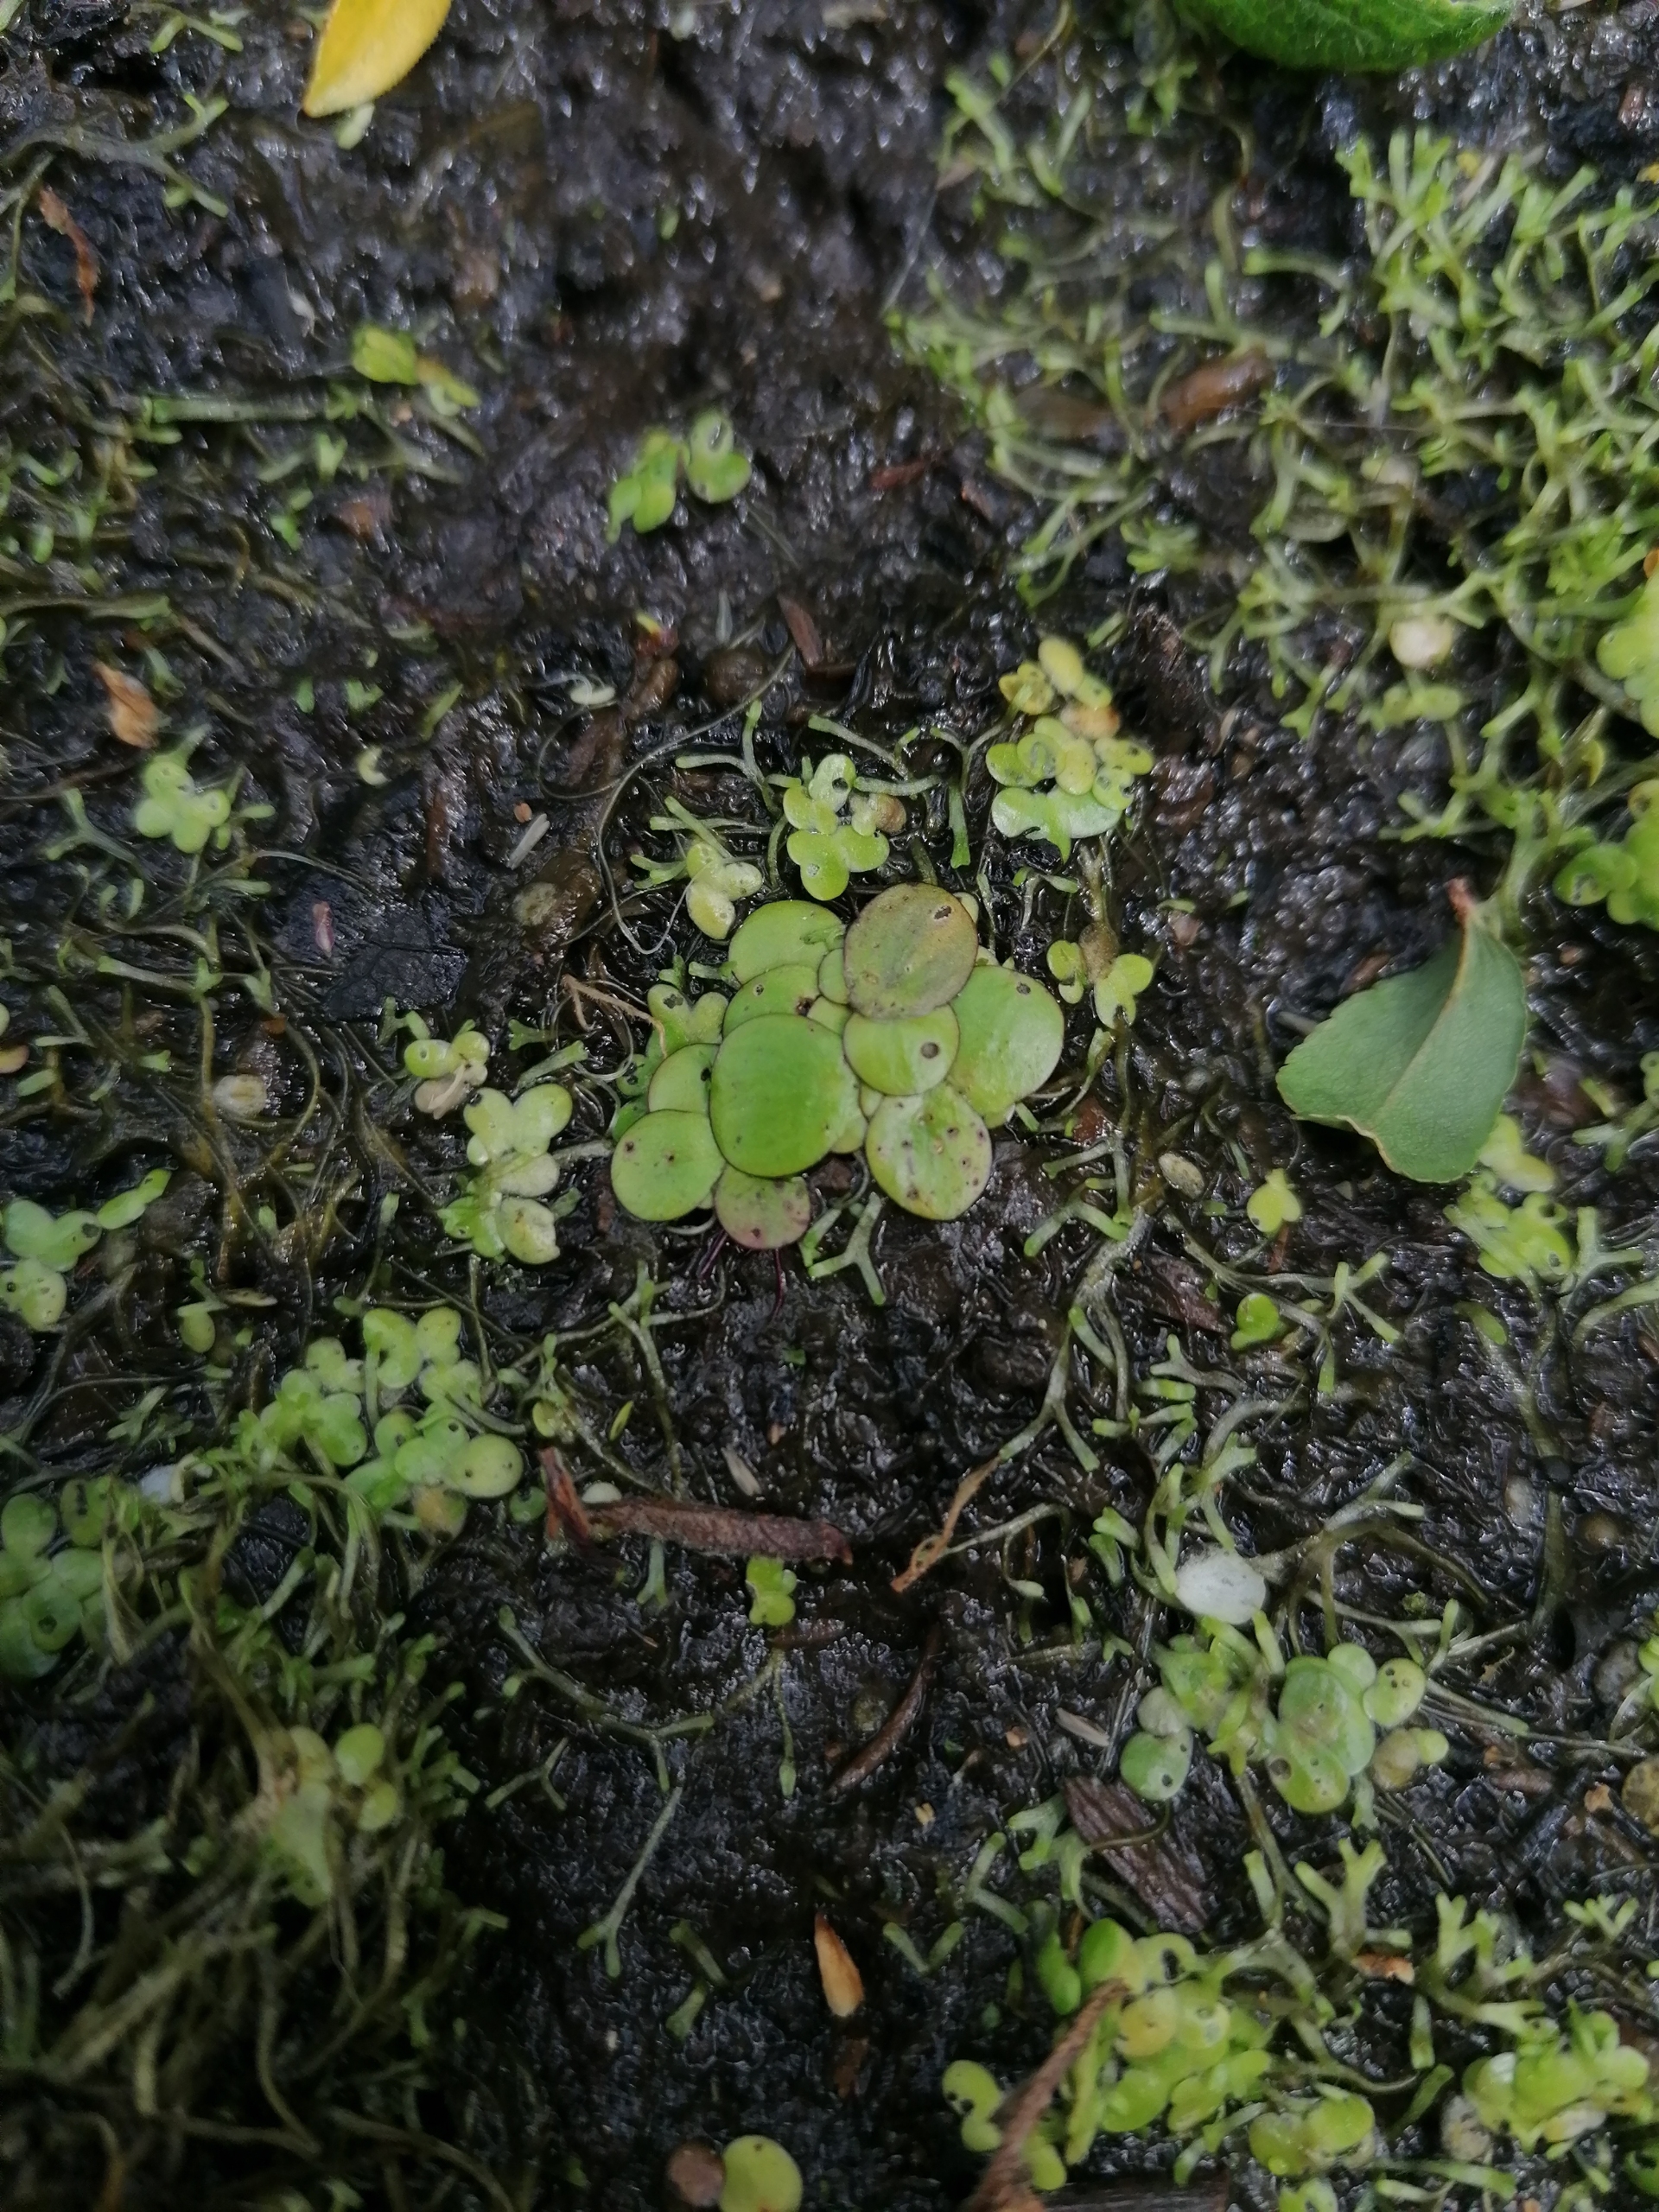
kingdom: Plantae
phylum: Tracheophyta
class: Liliopsida
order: Alismatales
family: Araceae
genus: Spirodela
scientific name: Spirodela polyrhiza
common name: Stor andemad
